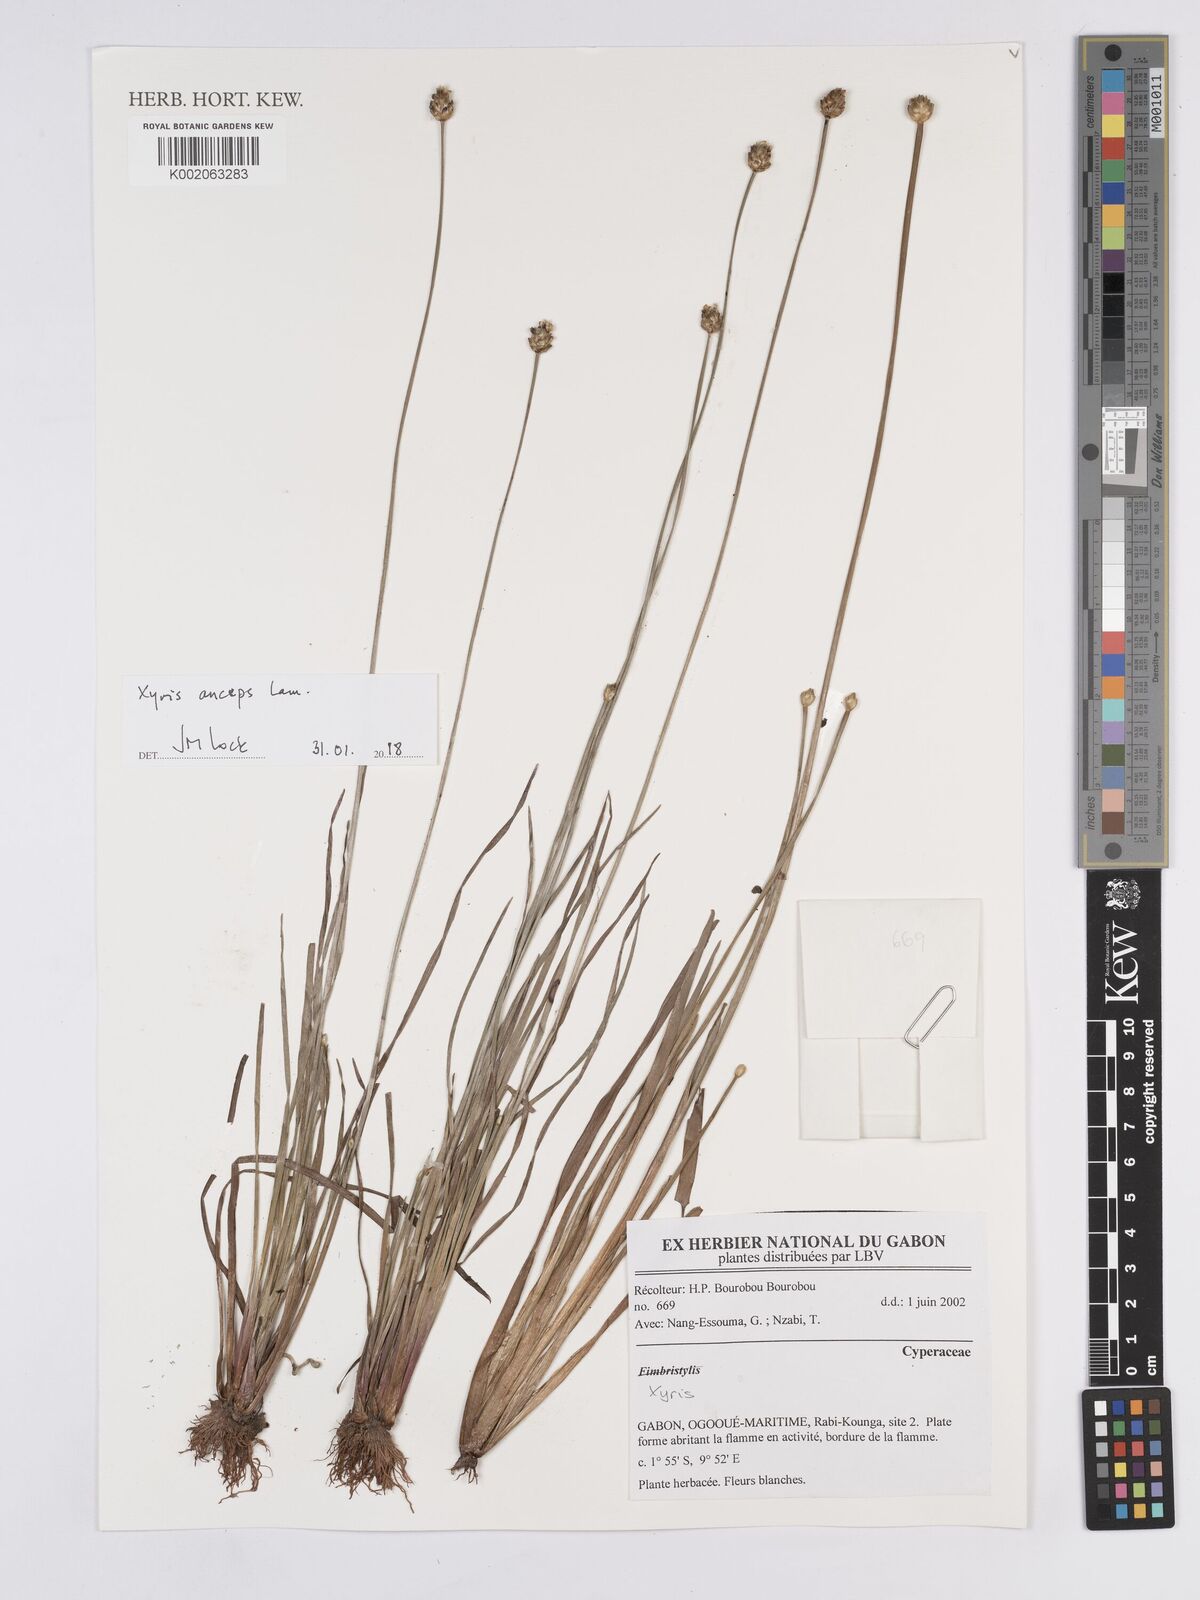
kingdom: Plantae
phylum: Tracheophyta
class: Liliopsida
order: Poales
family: Xyridaceae
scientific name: Xyridaceae
